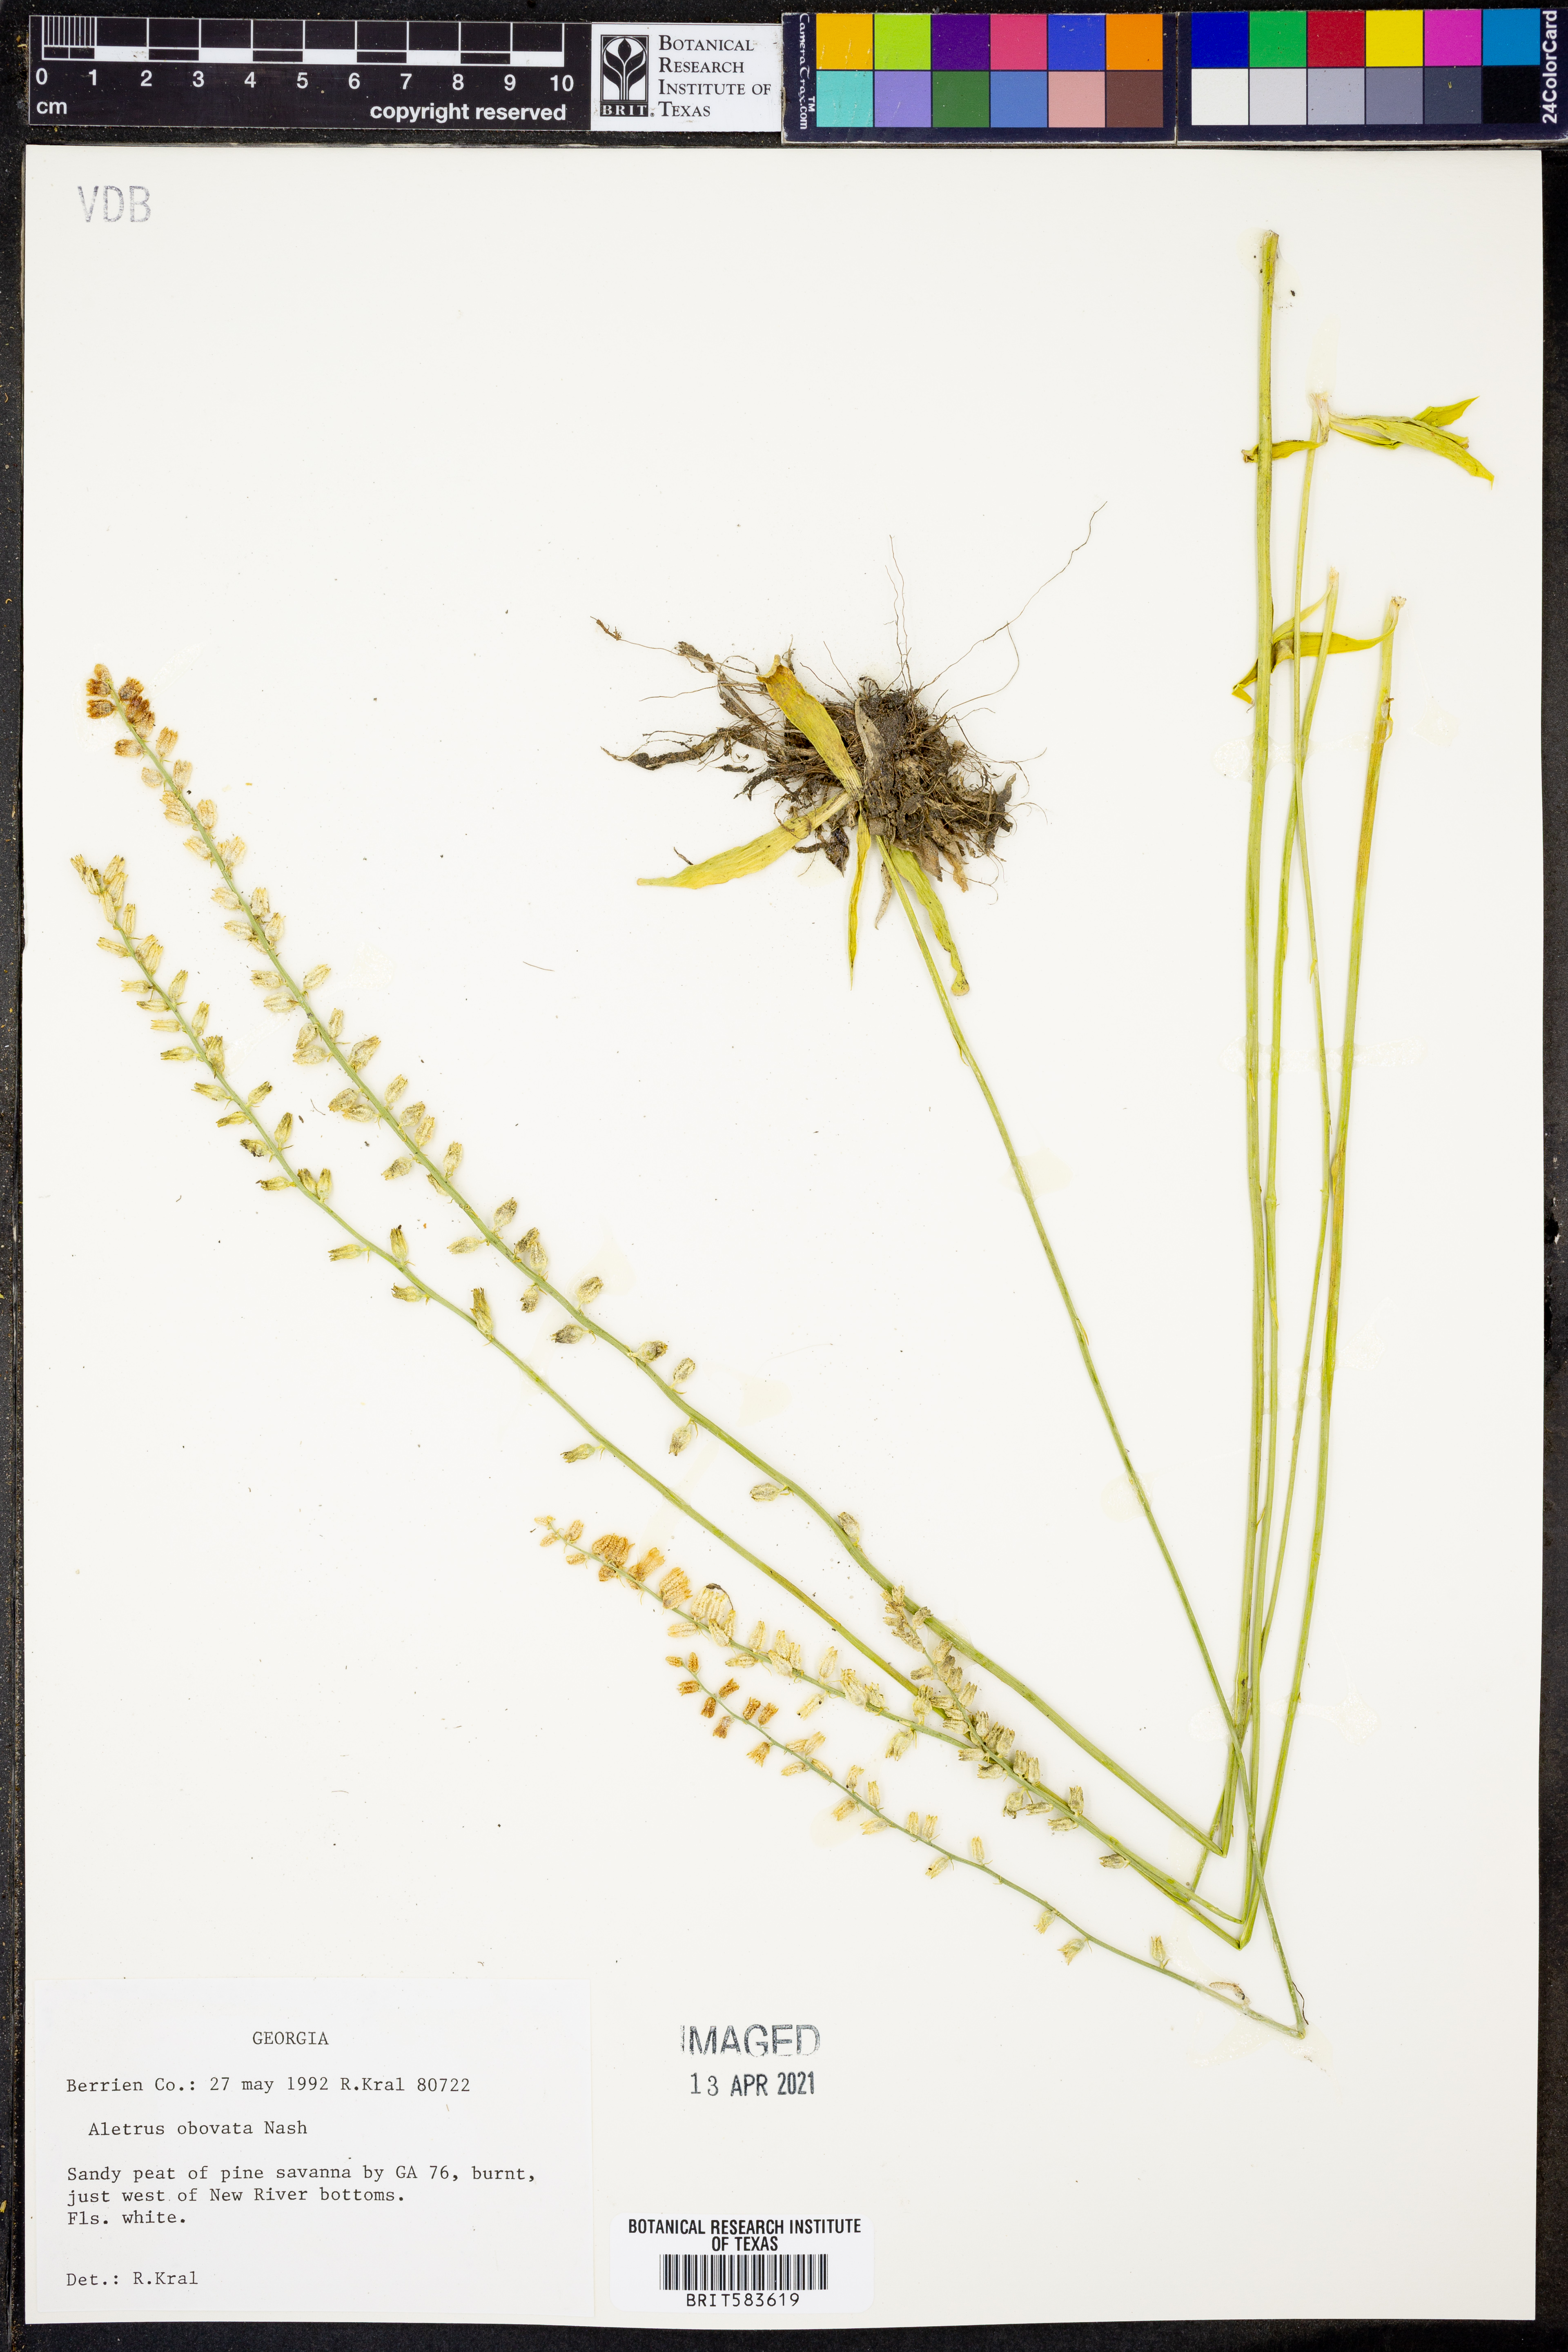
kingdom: Plantae
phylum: Tracheophyta
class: Liliopsida
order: Dioscoreales
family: Nartheciaceae
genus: Aletris
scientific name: Aletris obovata
